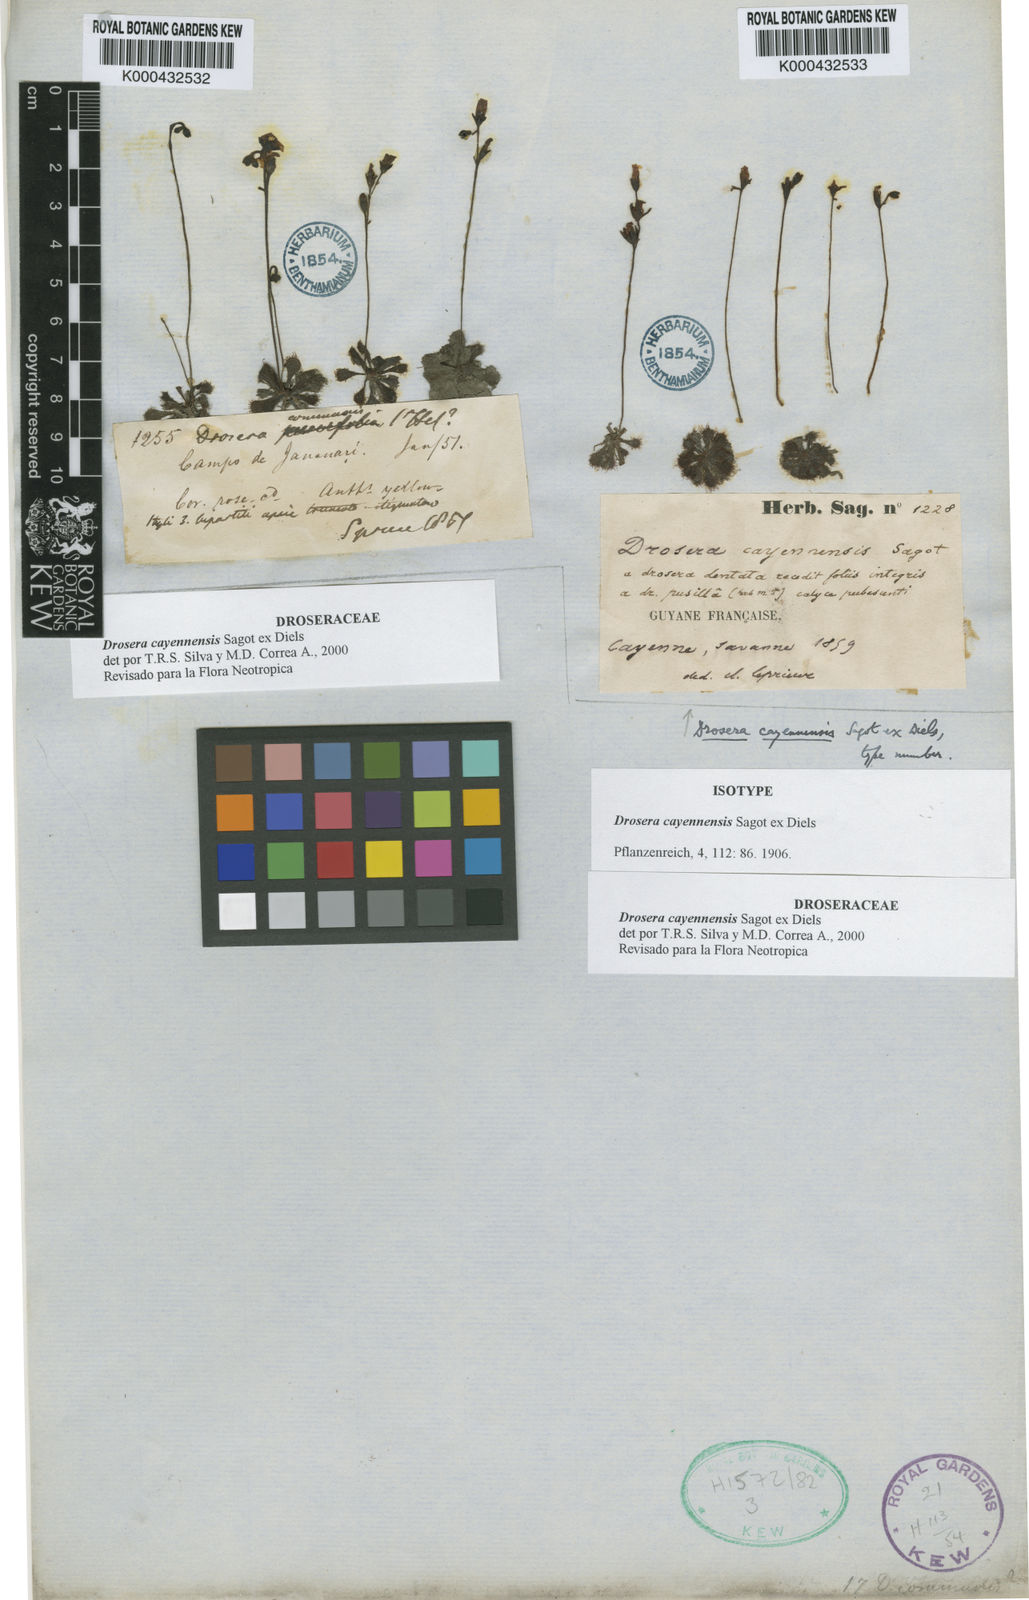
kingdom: Plantae
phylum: Tracheophyta
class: Magnoliopsida
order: Caryophyllales
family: Droseraceae
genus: Drosera
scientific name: Drosera cayennensis
